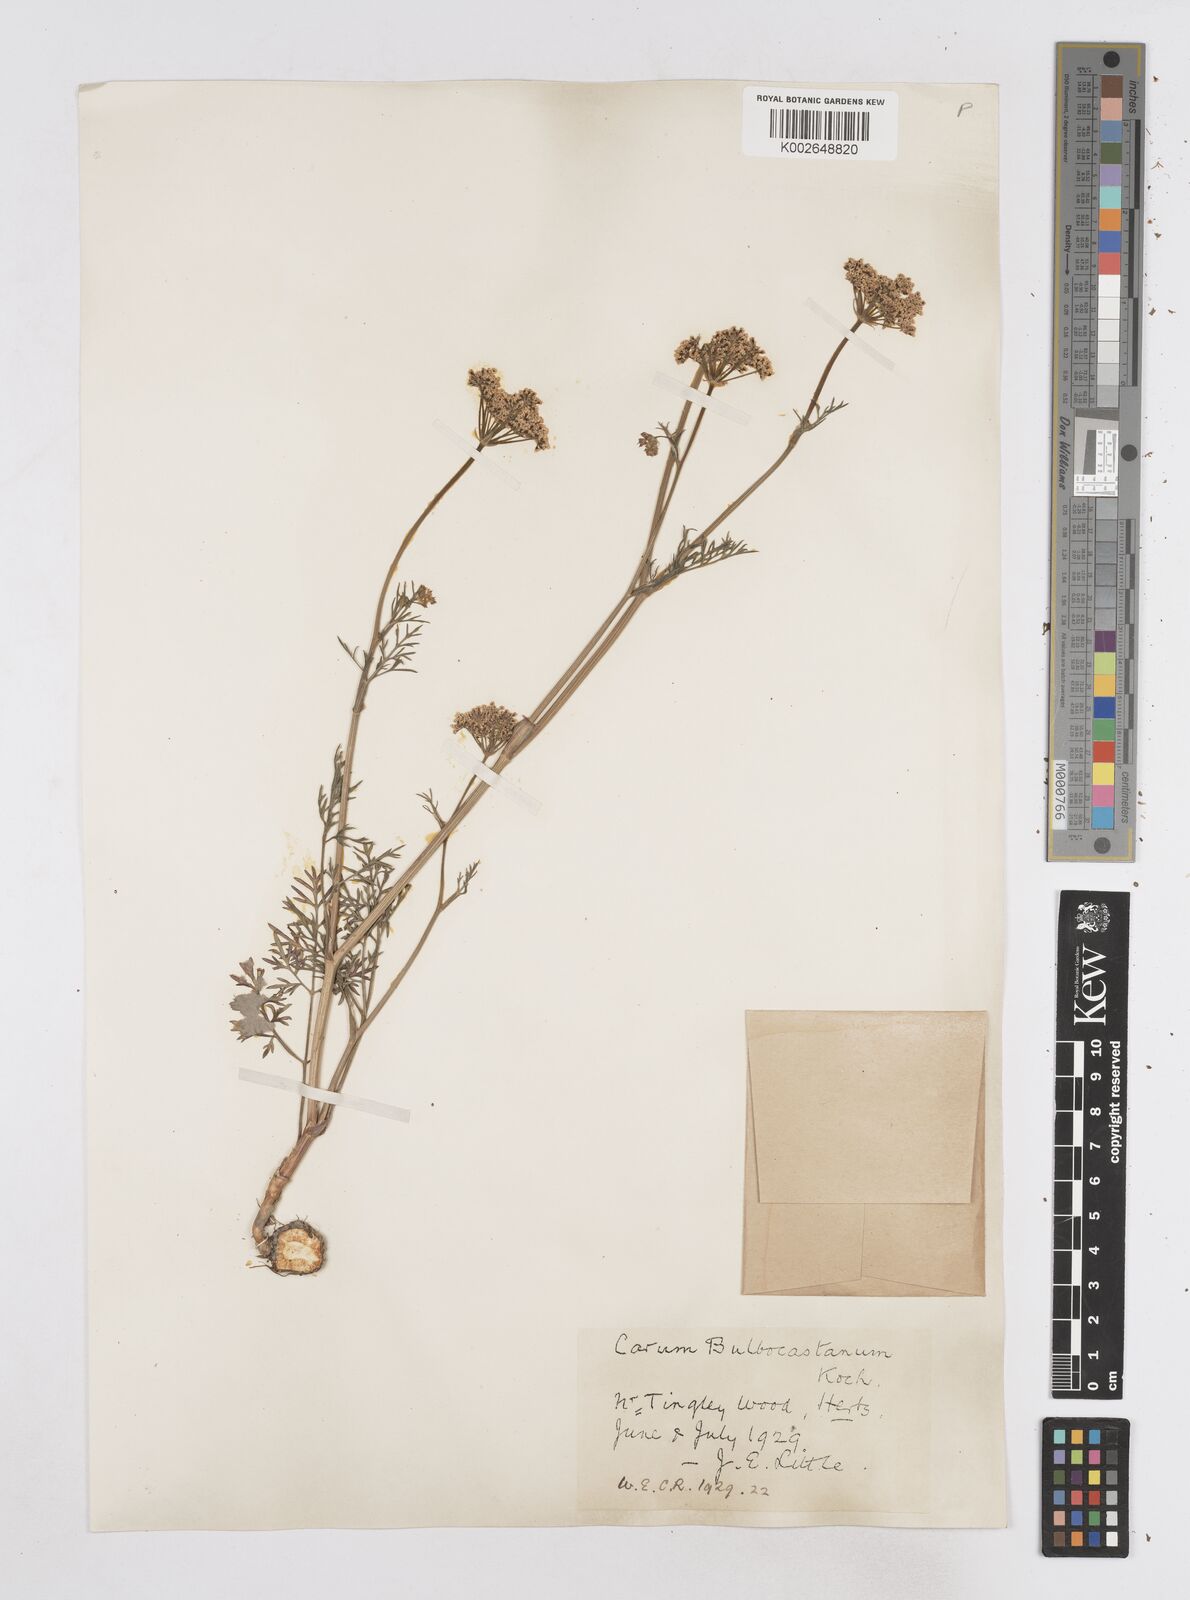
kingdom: Plantae
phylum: Tracheophyta
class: Magnoliopsida
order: Apiales
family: Apiaceae
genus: Bunium
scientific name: Bunium bulbocastanum
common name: Great pignut
